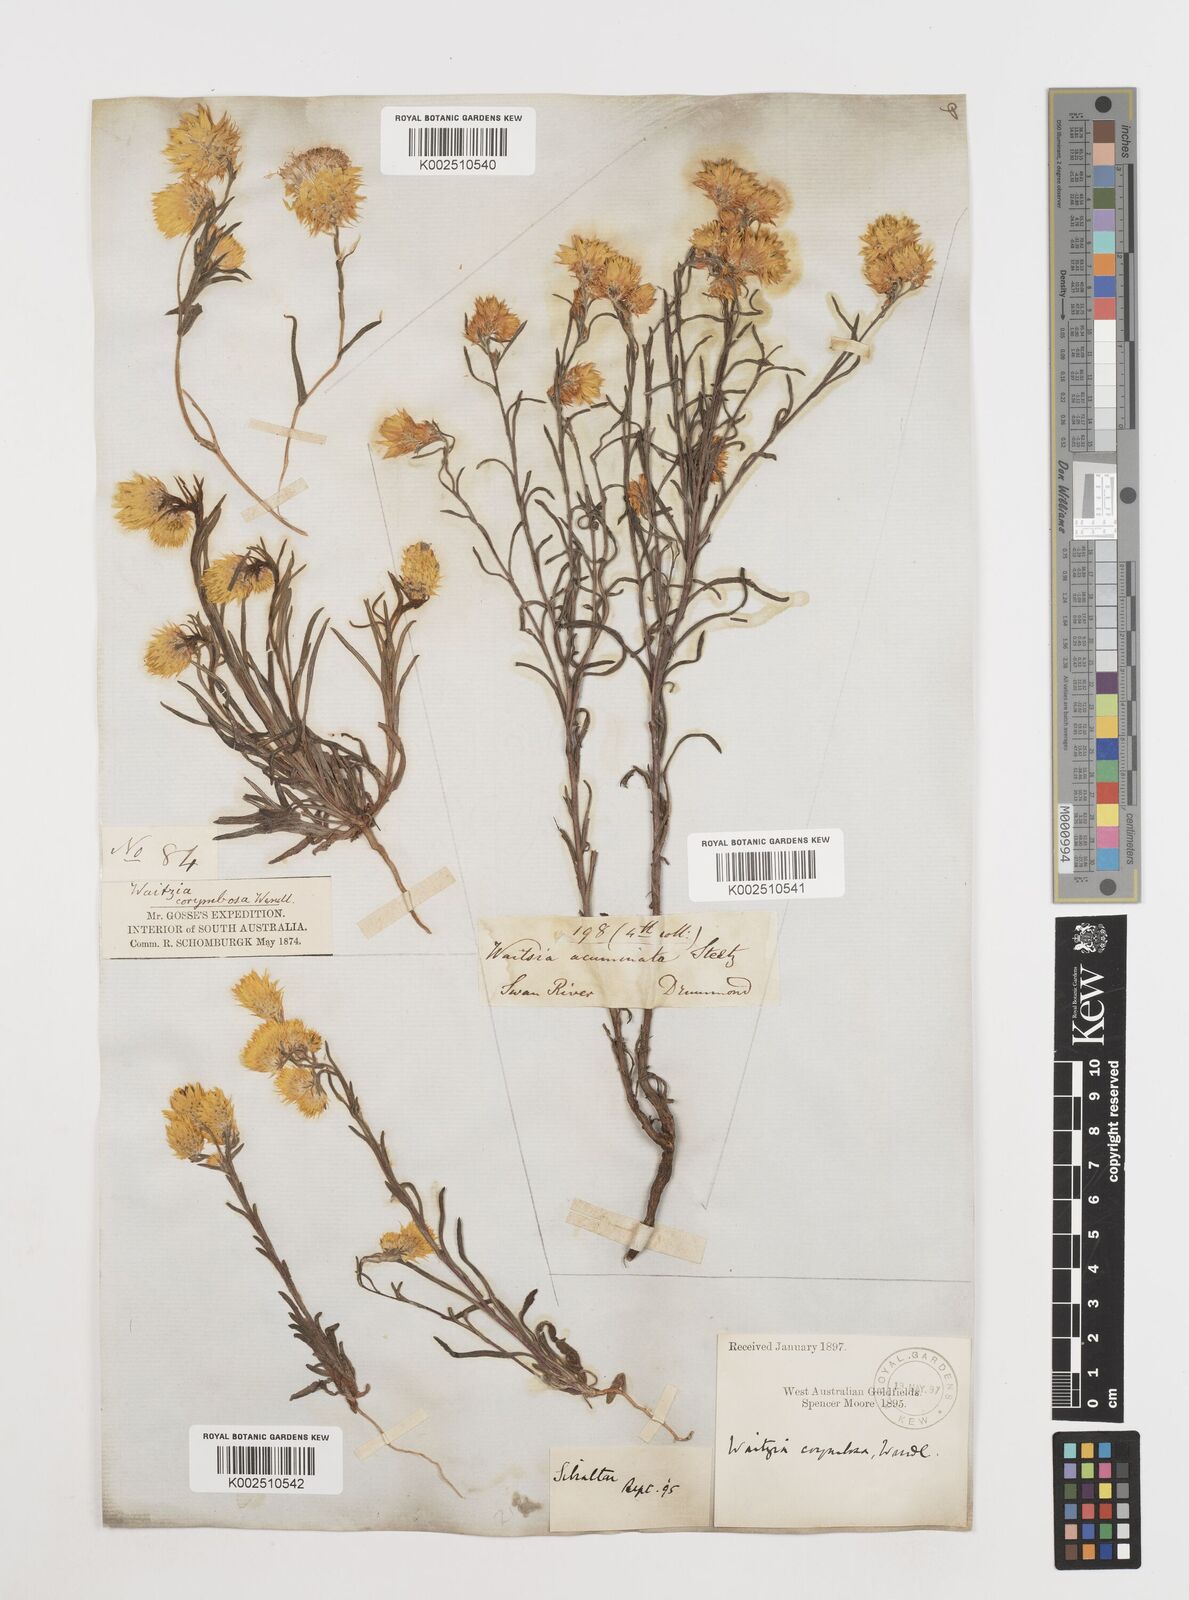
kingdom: Plantae
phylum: Tracheophyta
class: Magnoliopsida
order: Asterales
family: Asteraceae
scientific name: Asteraceae
